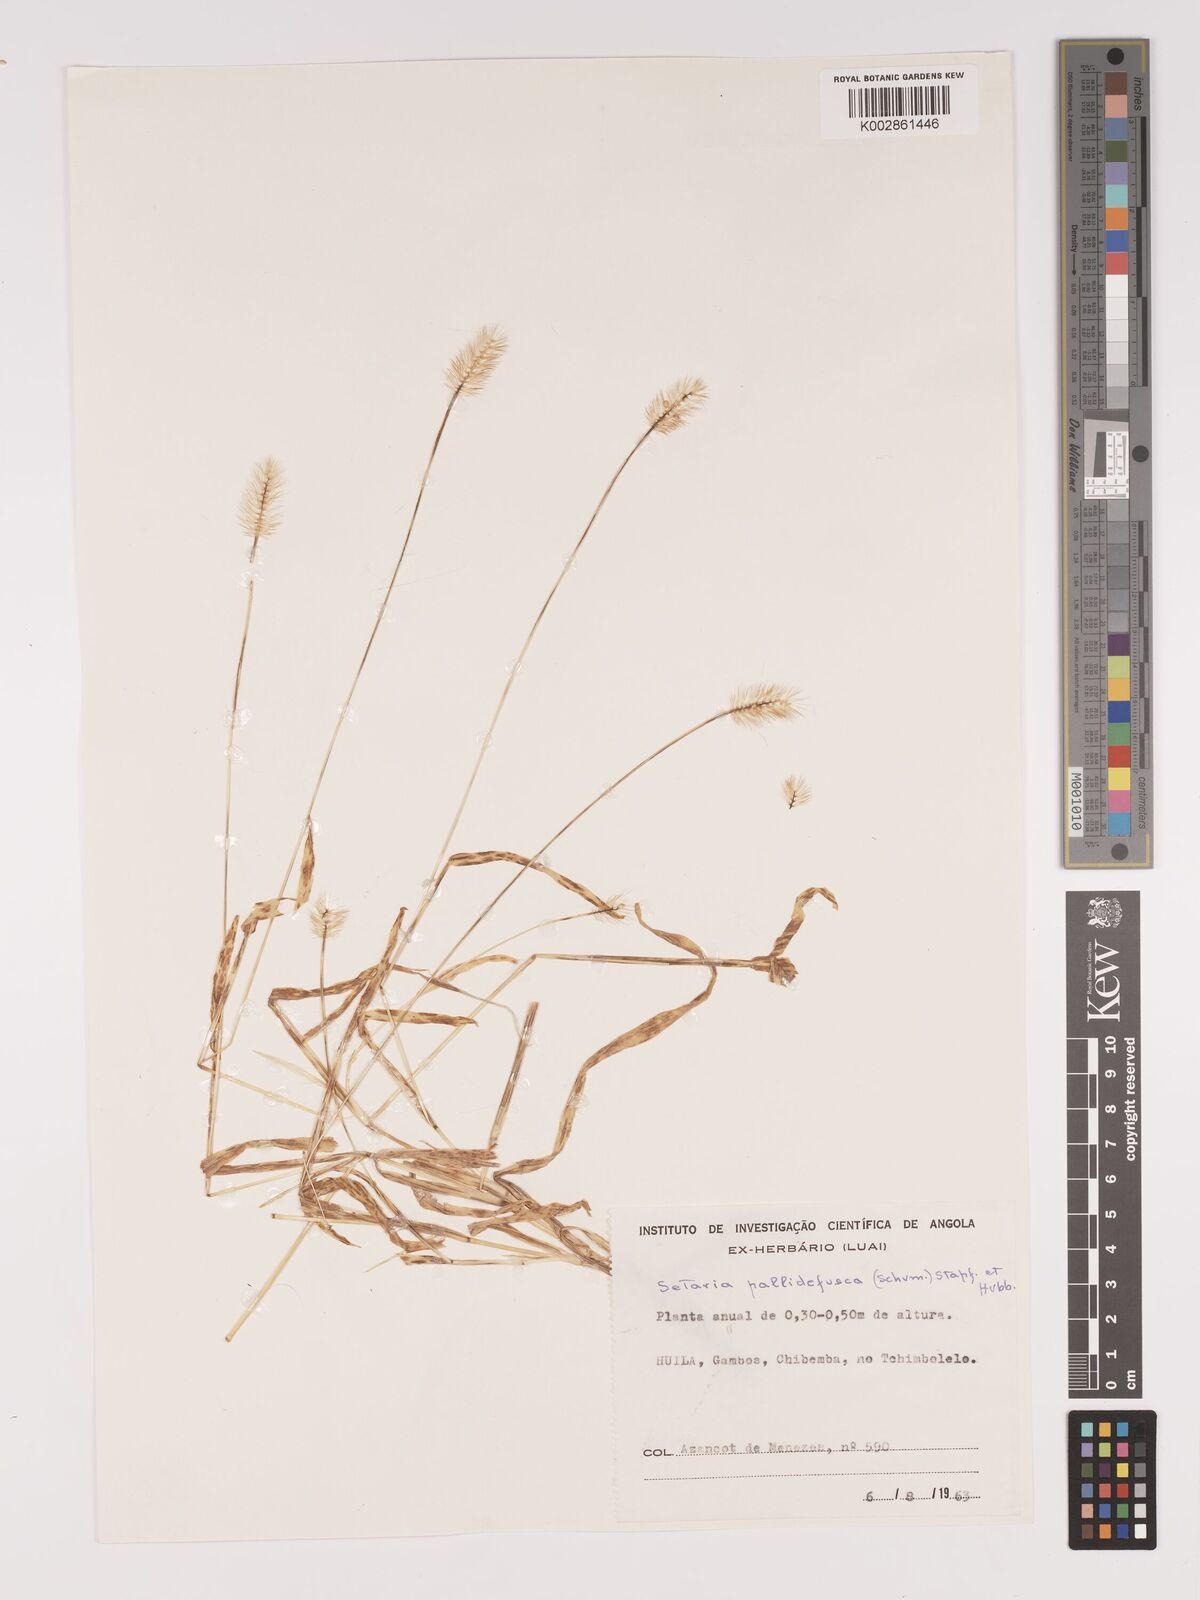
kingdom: Plantae
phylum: Tracheophyta
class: Liliopsida
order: Poales
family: Poaceae
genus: Setaria
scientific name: Setaria pumila
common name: Yellow bristle-grass
